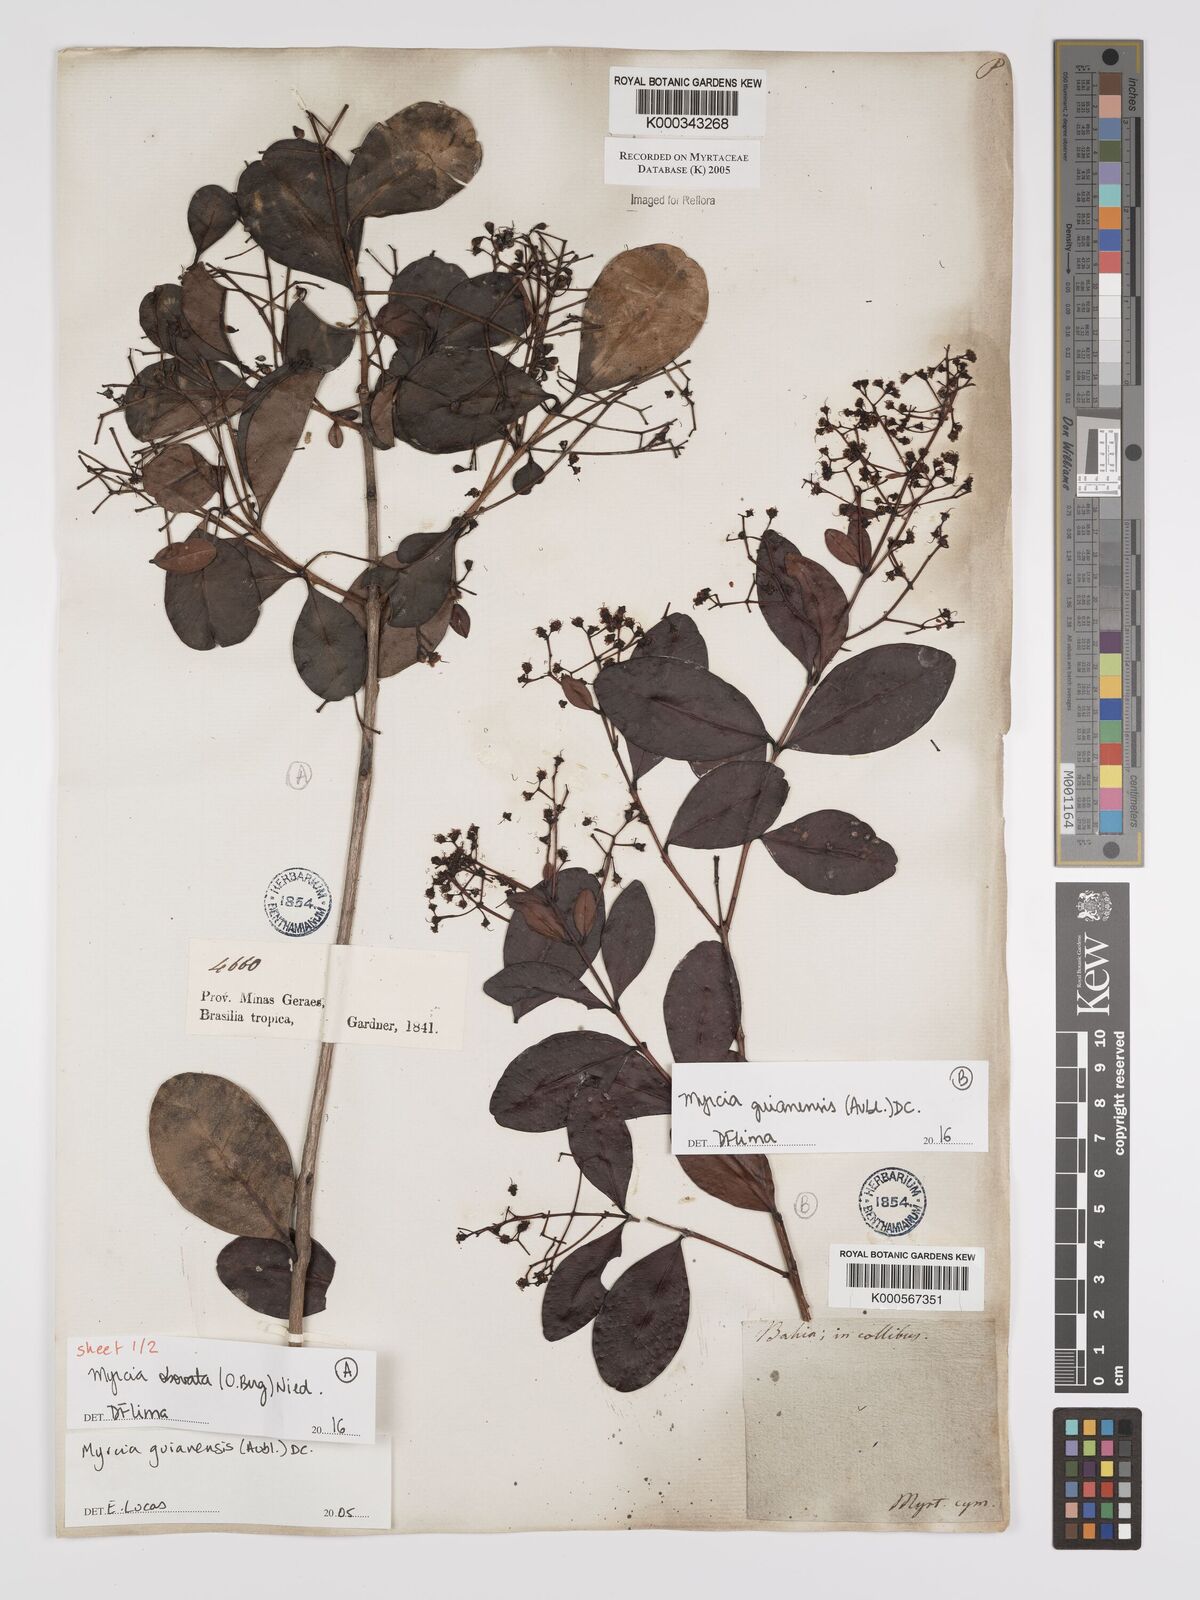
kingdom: Plantae
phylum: Tracheophyta
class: Magnoliopsida
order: Myrtales
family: Myrtaceae
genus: Myrcia
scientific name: Myrcia guianensis
